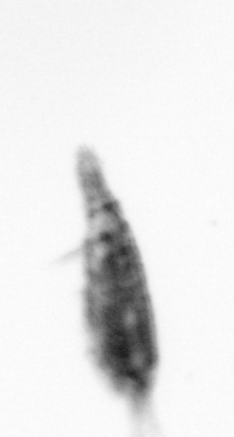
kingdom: Animalia
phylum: Arthropoda
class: Copepoda
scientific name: Copepoda
